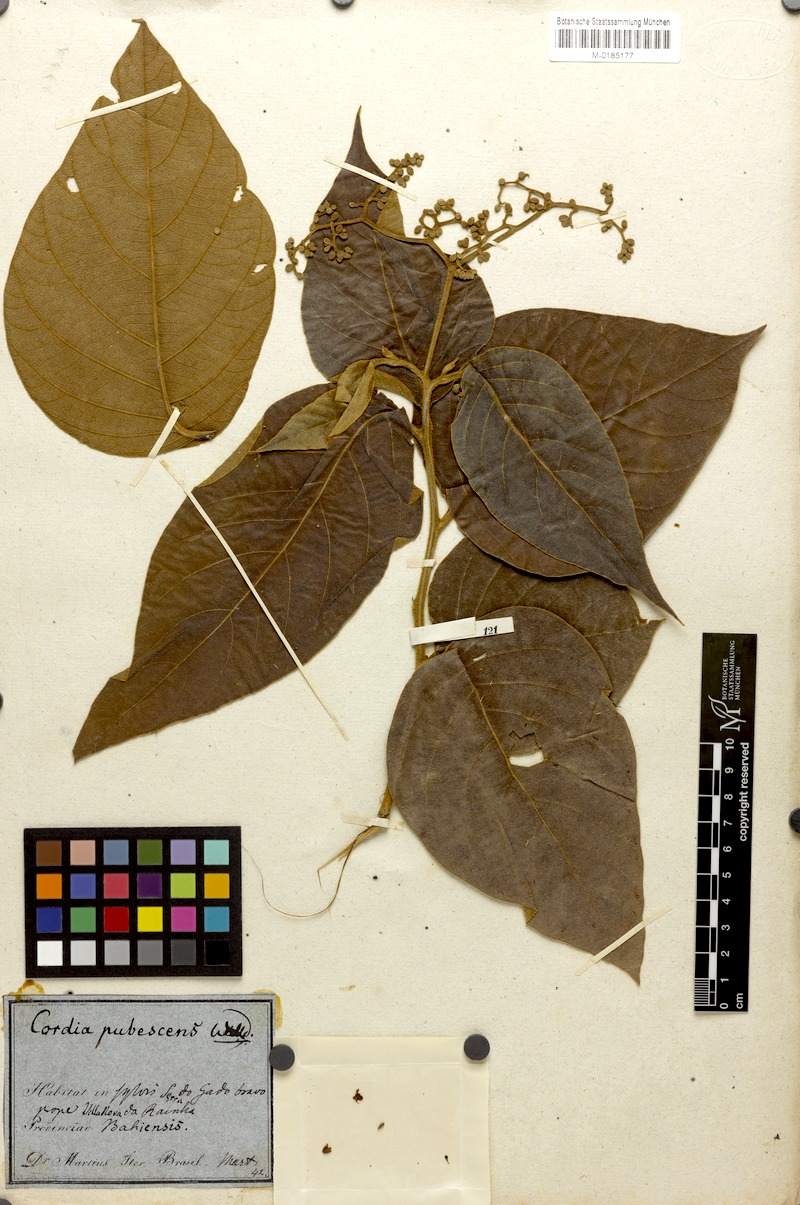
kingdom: Plantae
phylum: Tracheophyta
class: Magnoliopsida
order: Boraginales
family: Cordiaceae
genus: Cordia
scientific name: Cordia toqueve
